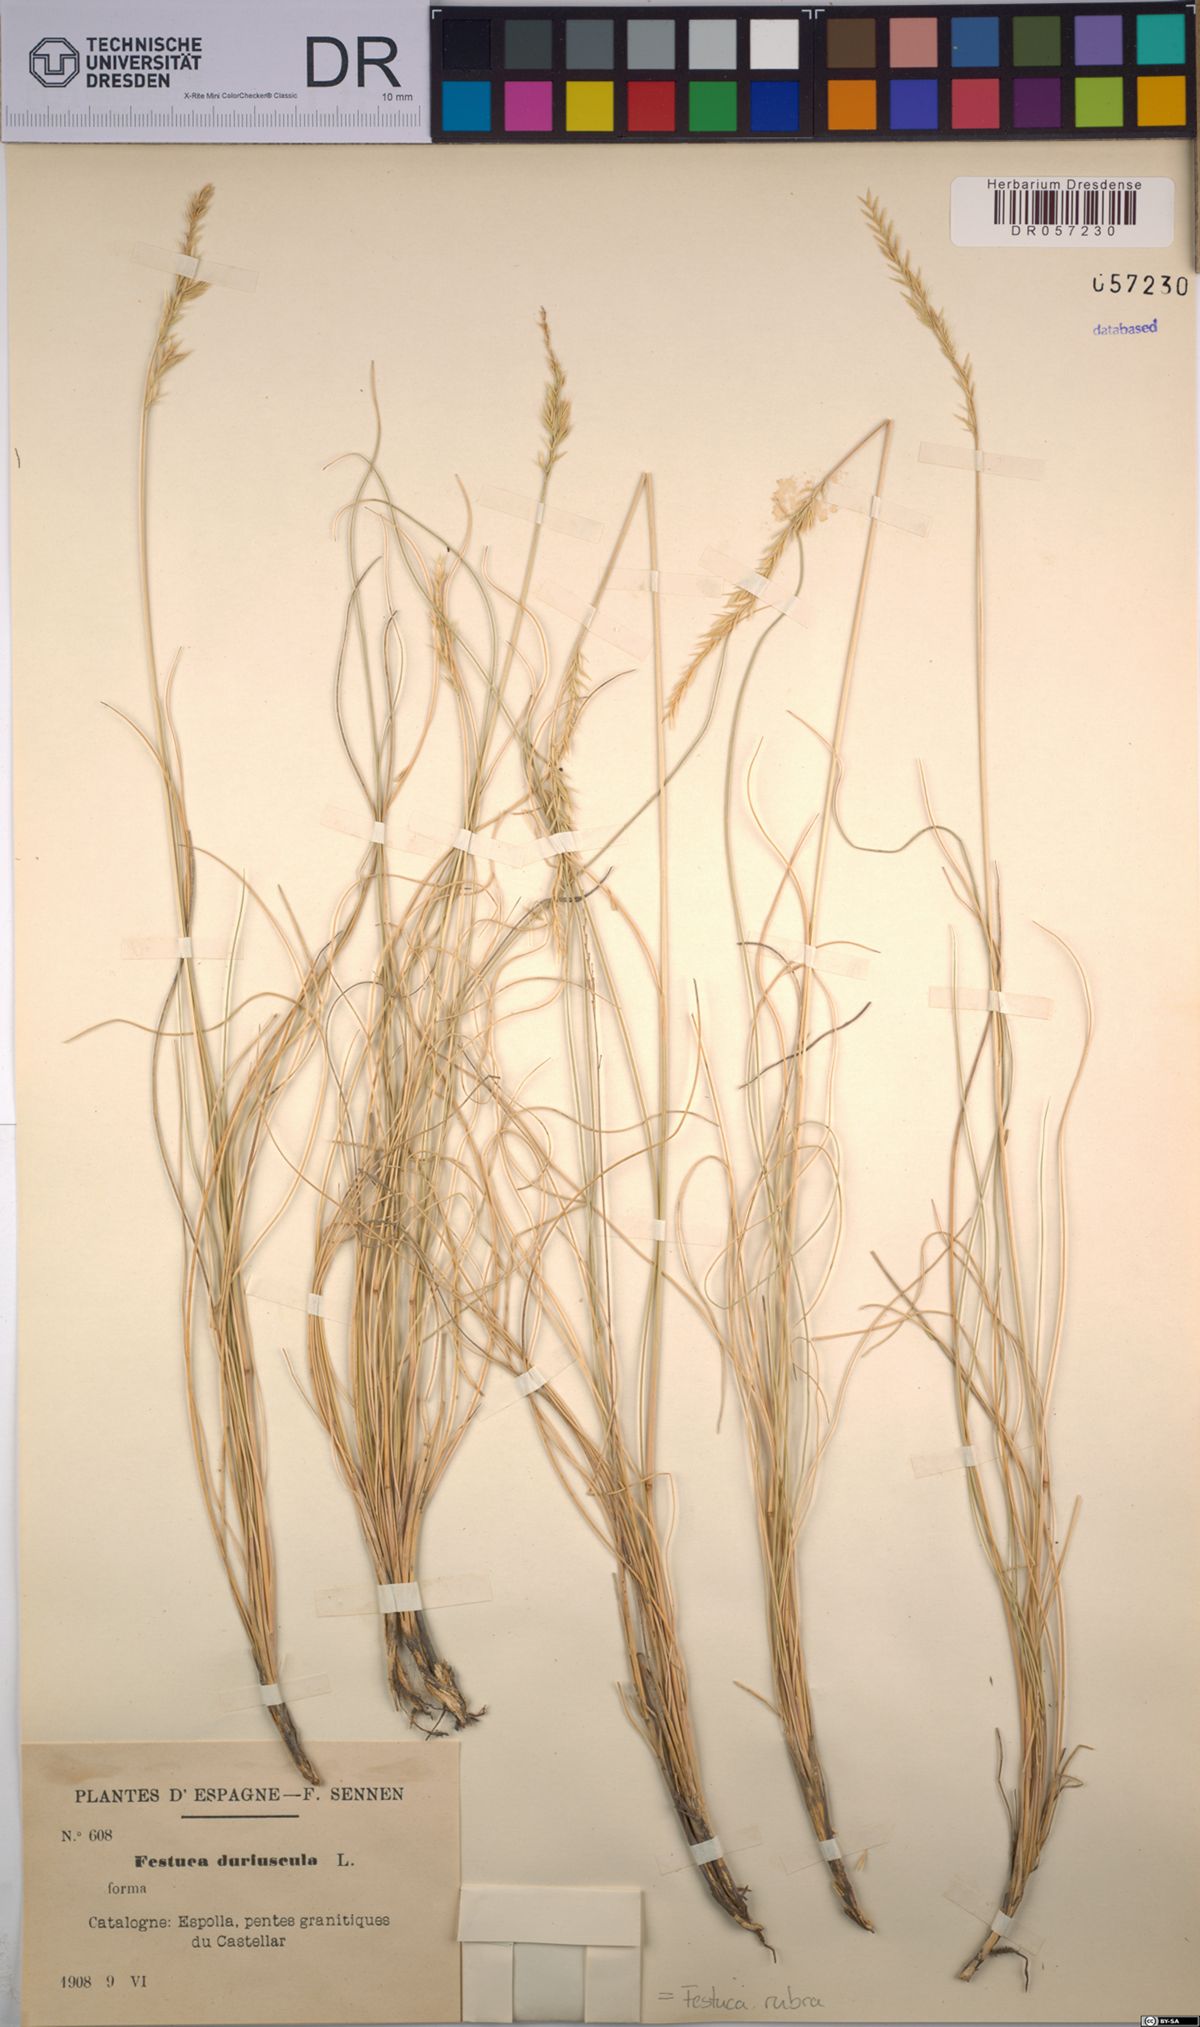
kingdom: Plantae
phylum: Tracheophyta
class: Liliopsida
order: Poales
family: Poaceae
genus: Festuca
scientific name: Festuca rubra
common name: Red fescue
